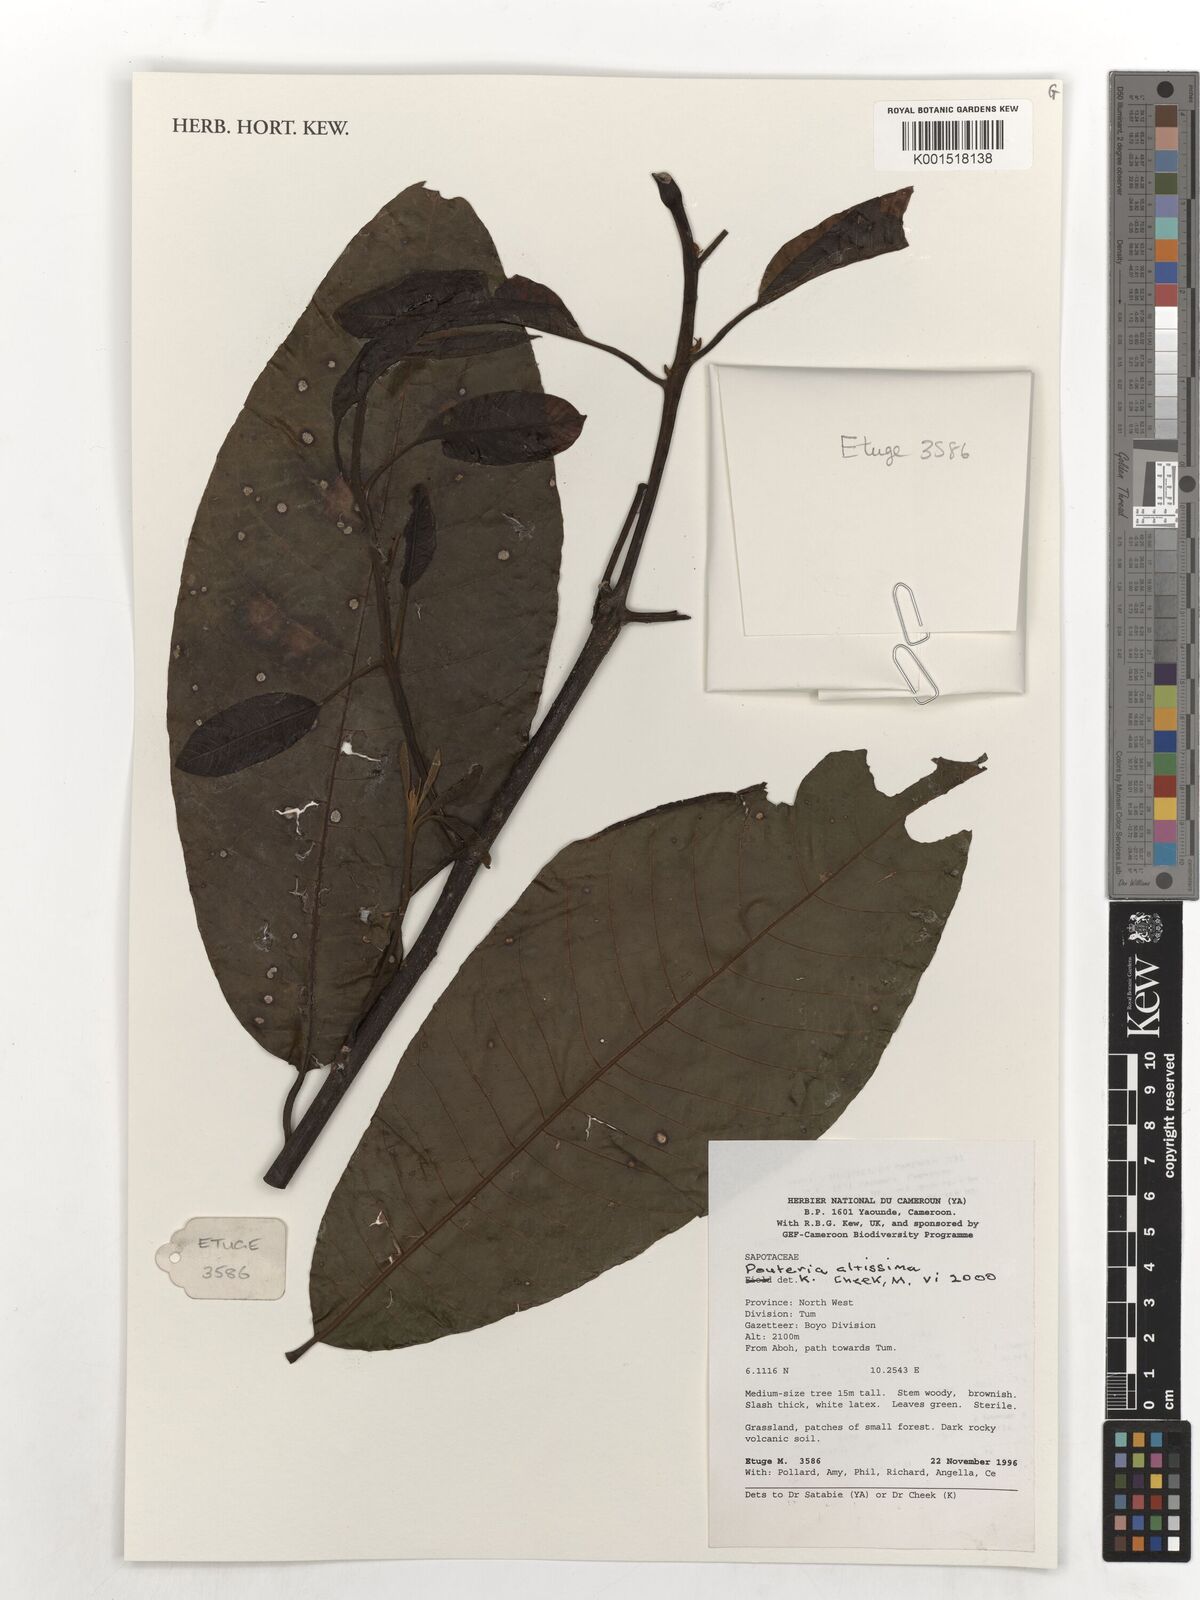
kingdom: Plantae
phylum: Tracheophyta
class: Magnoliopsida
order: Ericales
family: Sapotaceae
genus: Aningeria
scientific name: Aningeria altissima
